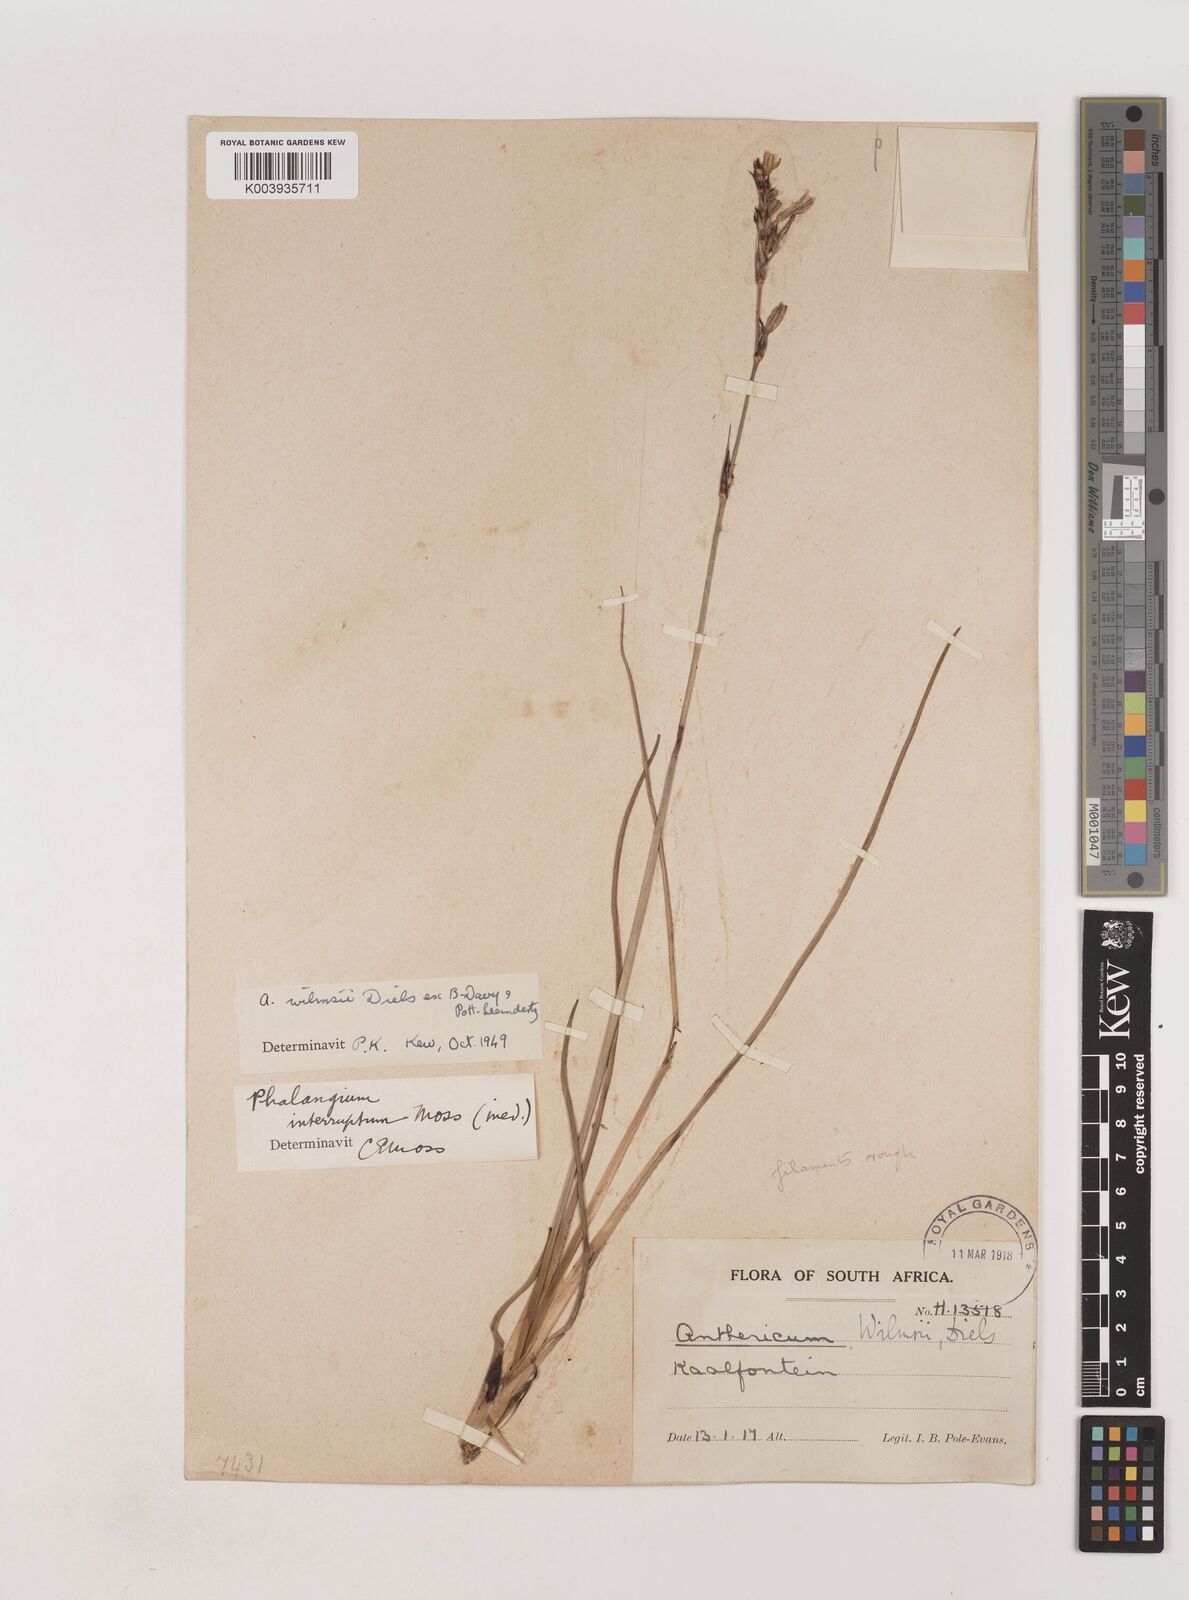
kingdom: Plantae
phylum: Tracheophyta
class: Liliopsida
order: Asparagales
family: Asparagaceae
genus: Chlorophytum
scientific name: Chlorophytum fasciculatum
